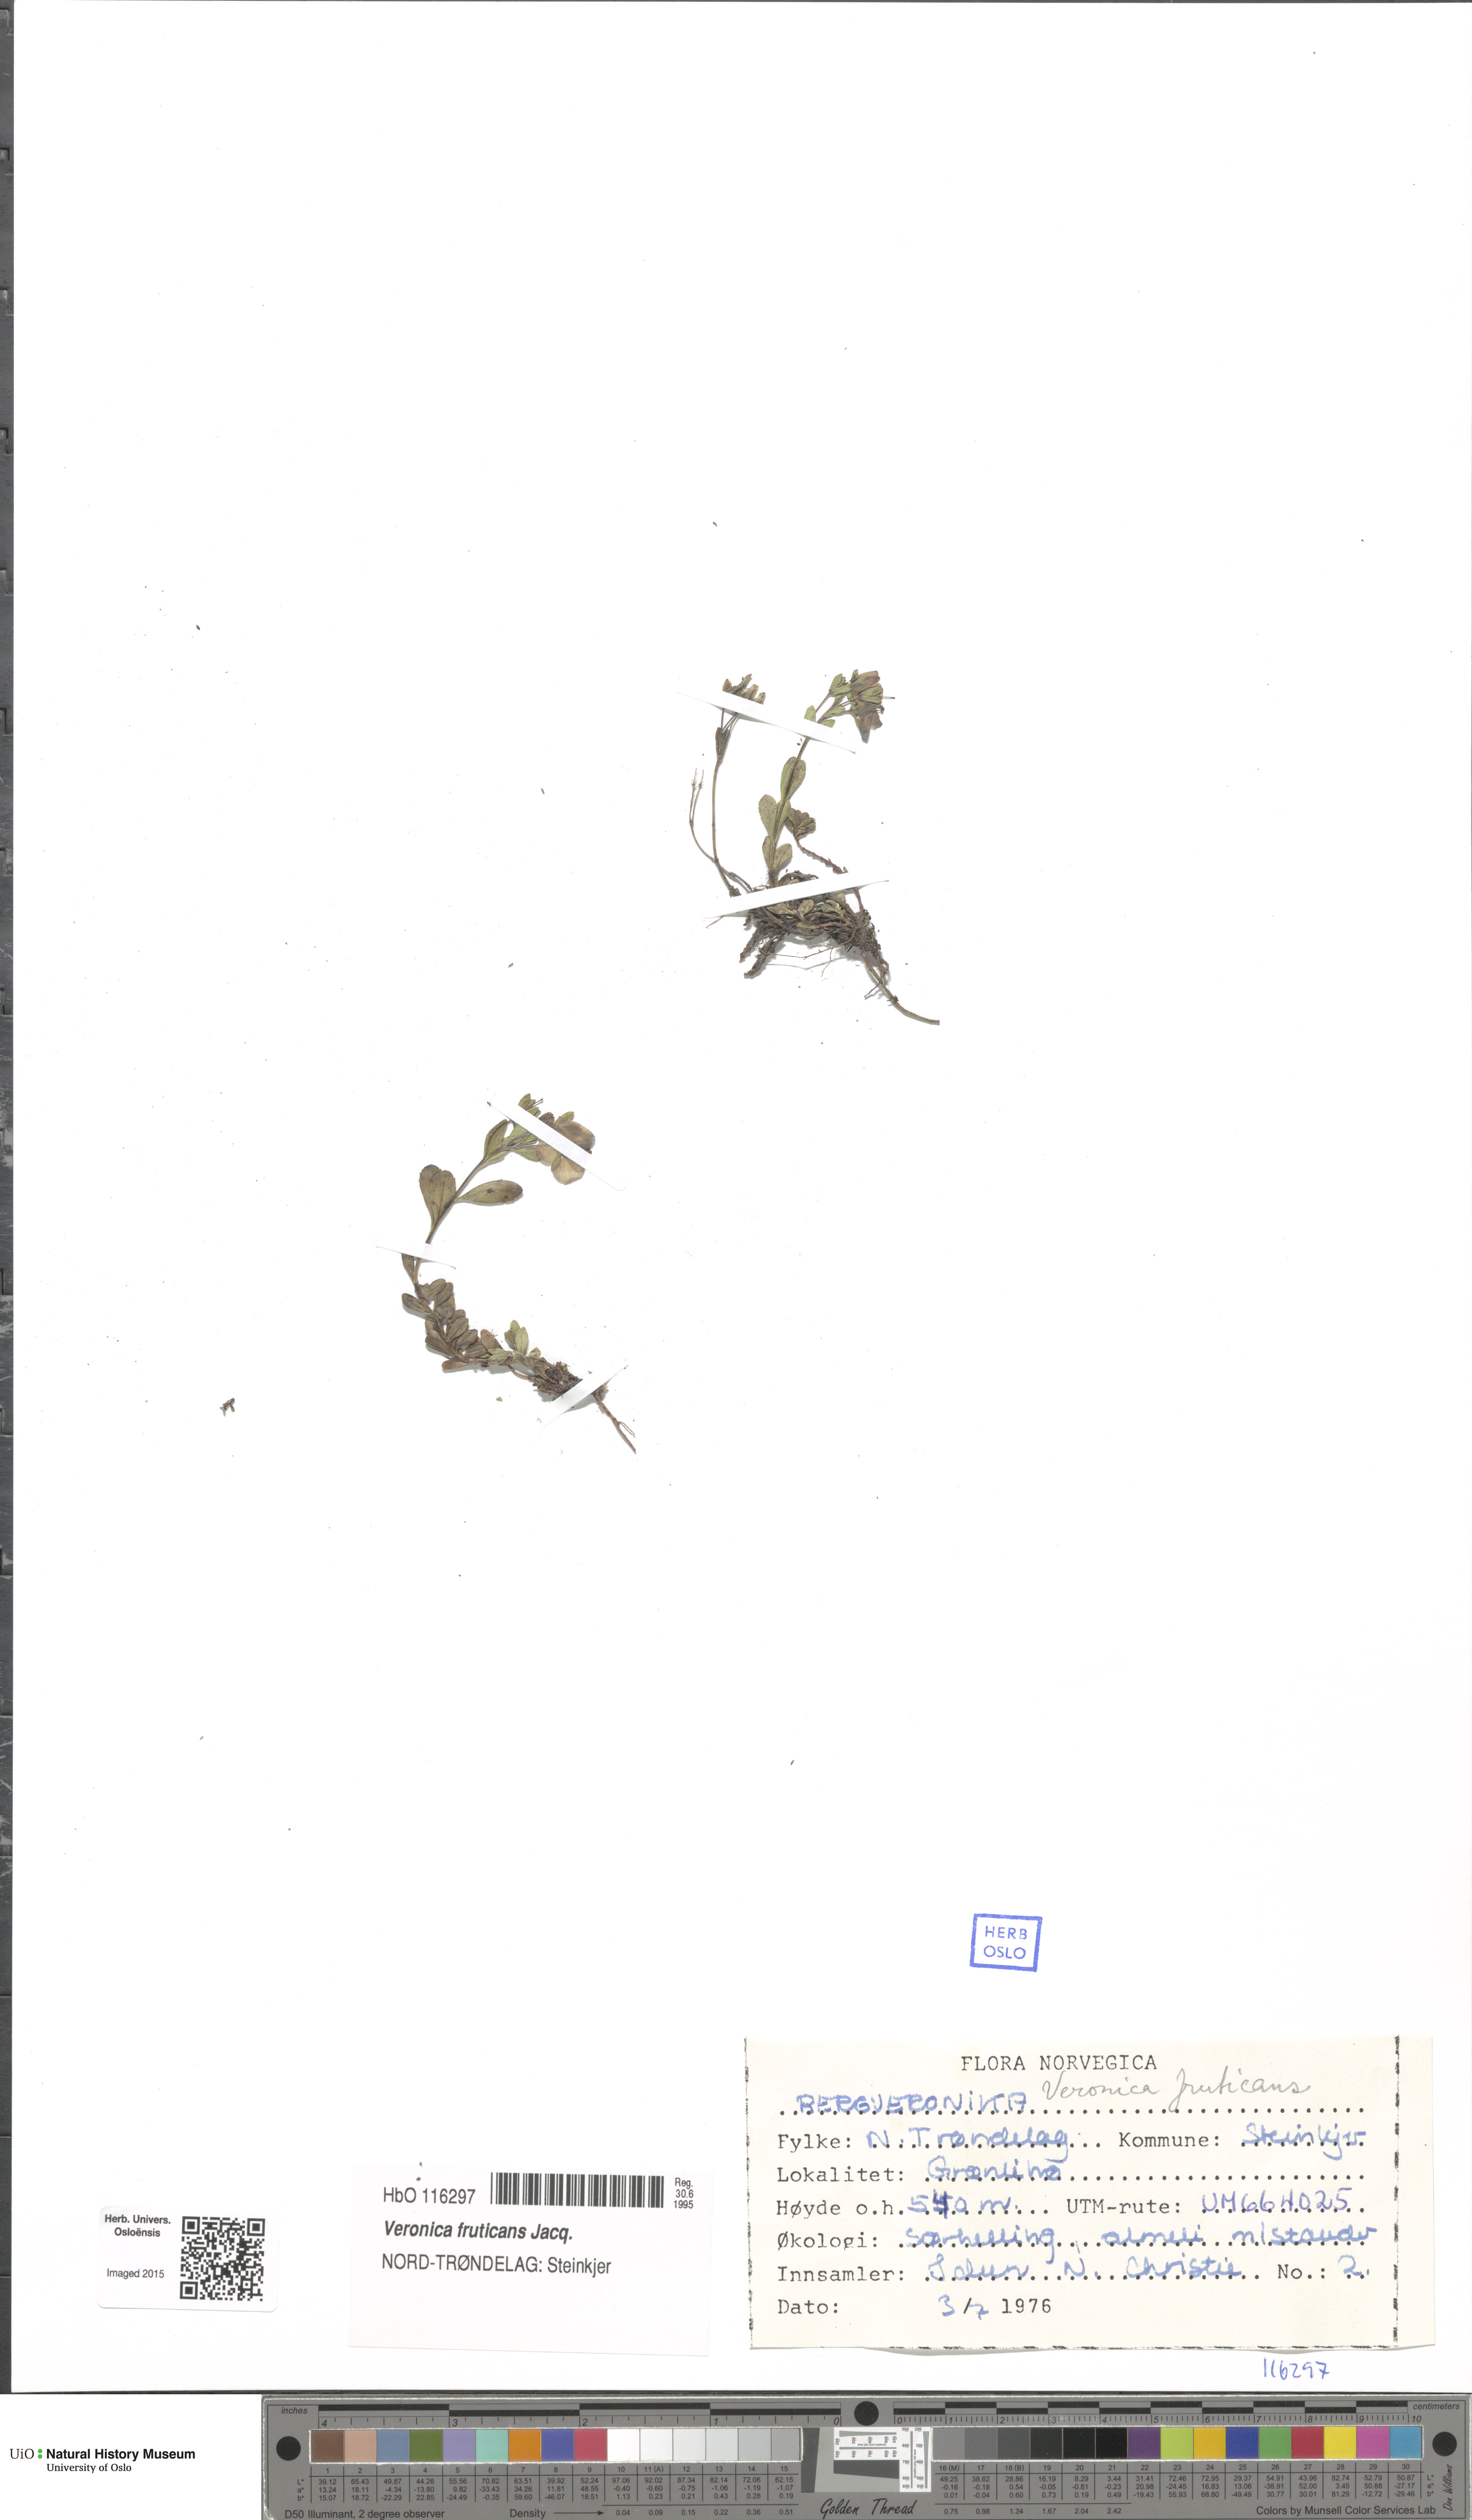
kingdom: Plantae
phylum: Tracheophyta
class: Magnoliopsida
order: Lamiales
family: Plantaginaceae
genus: Veronica
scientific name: Veronica fruticans
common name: Rock speedwell
